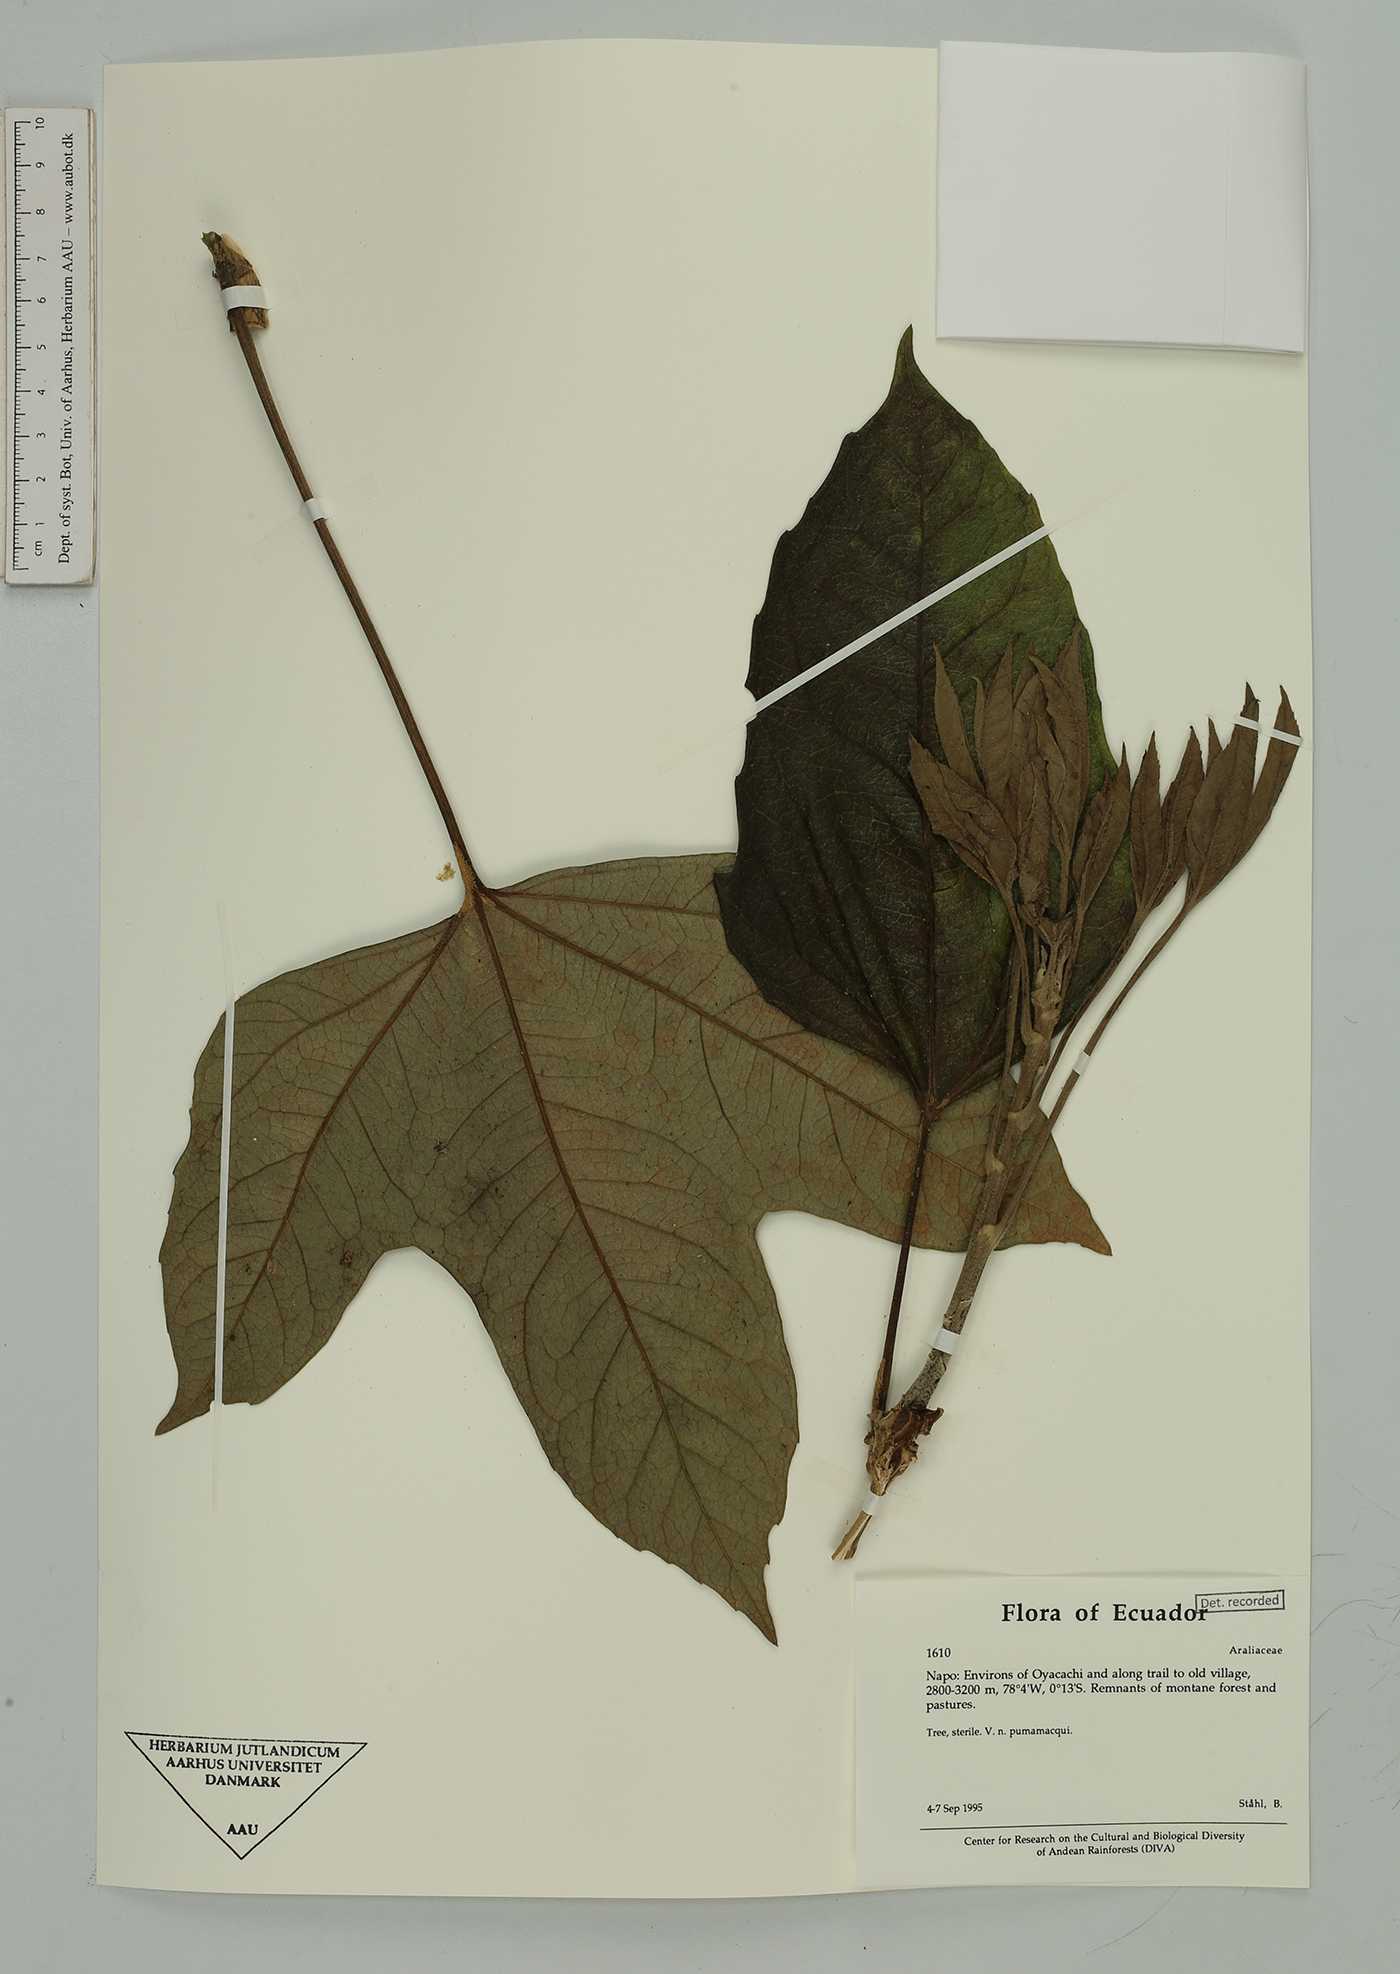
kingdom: Plantae
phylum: Tracheophyta
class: Magnoliopsida
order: Apiales
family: Araliaceae
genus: Oreopanax
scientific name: Oreopanax
